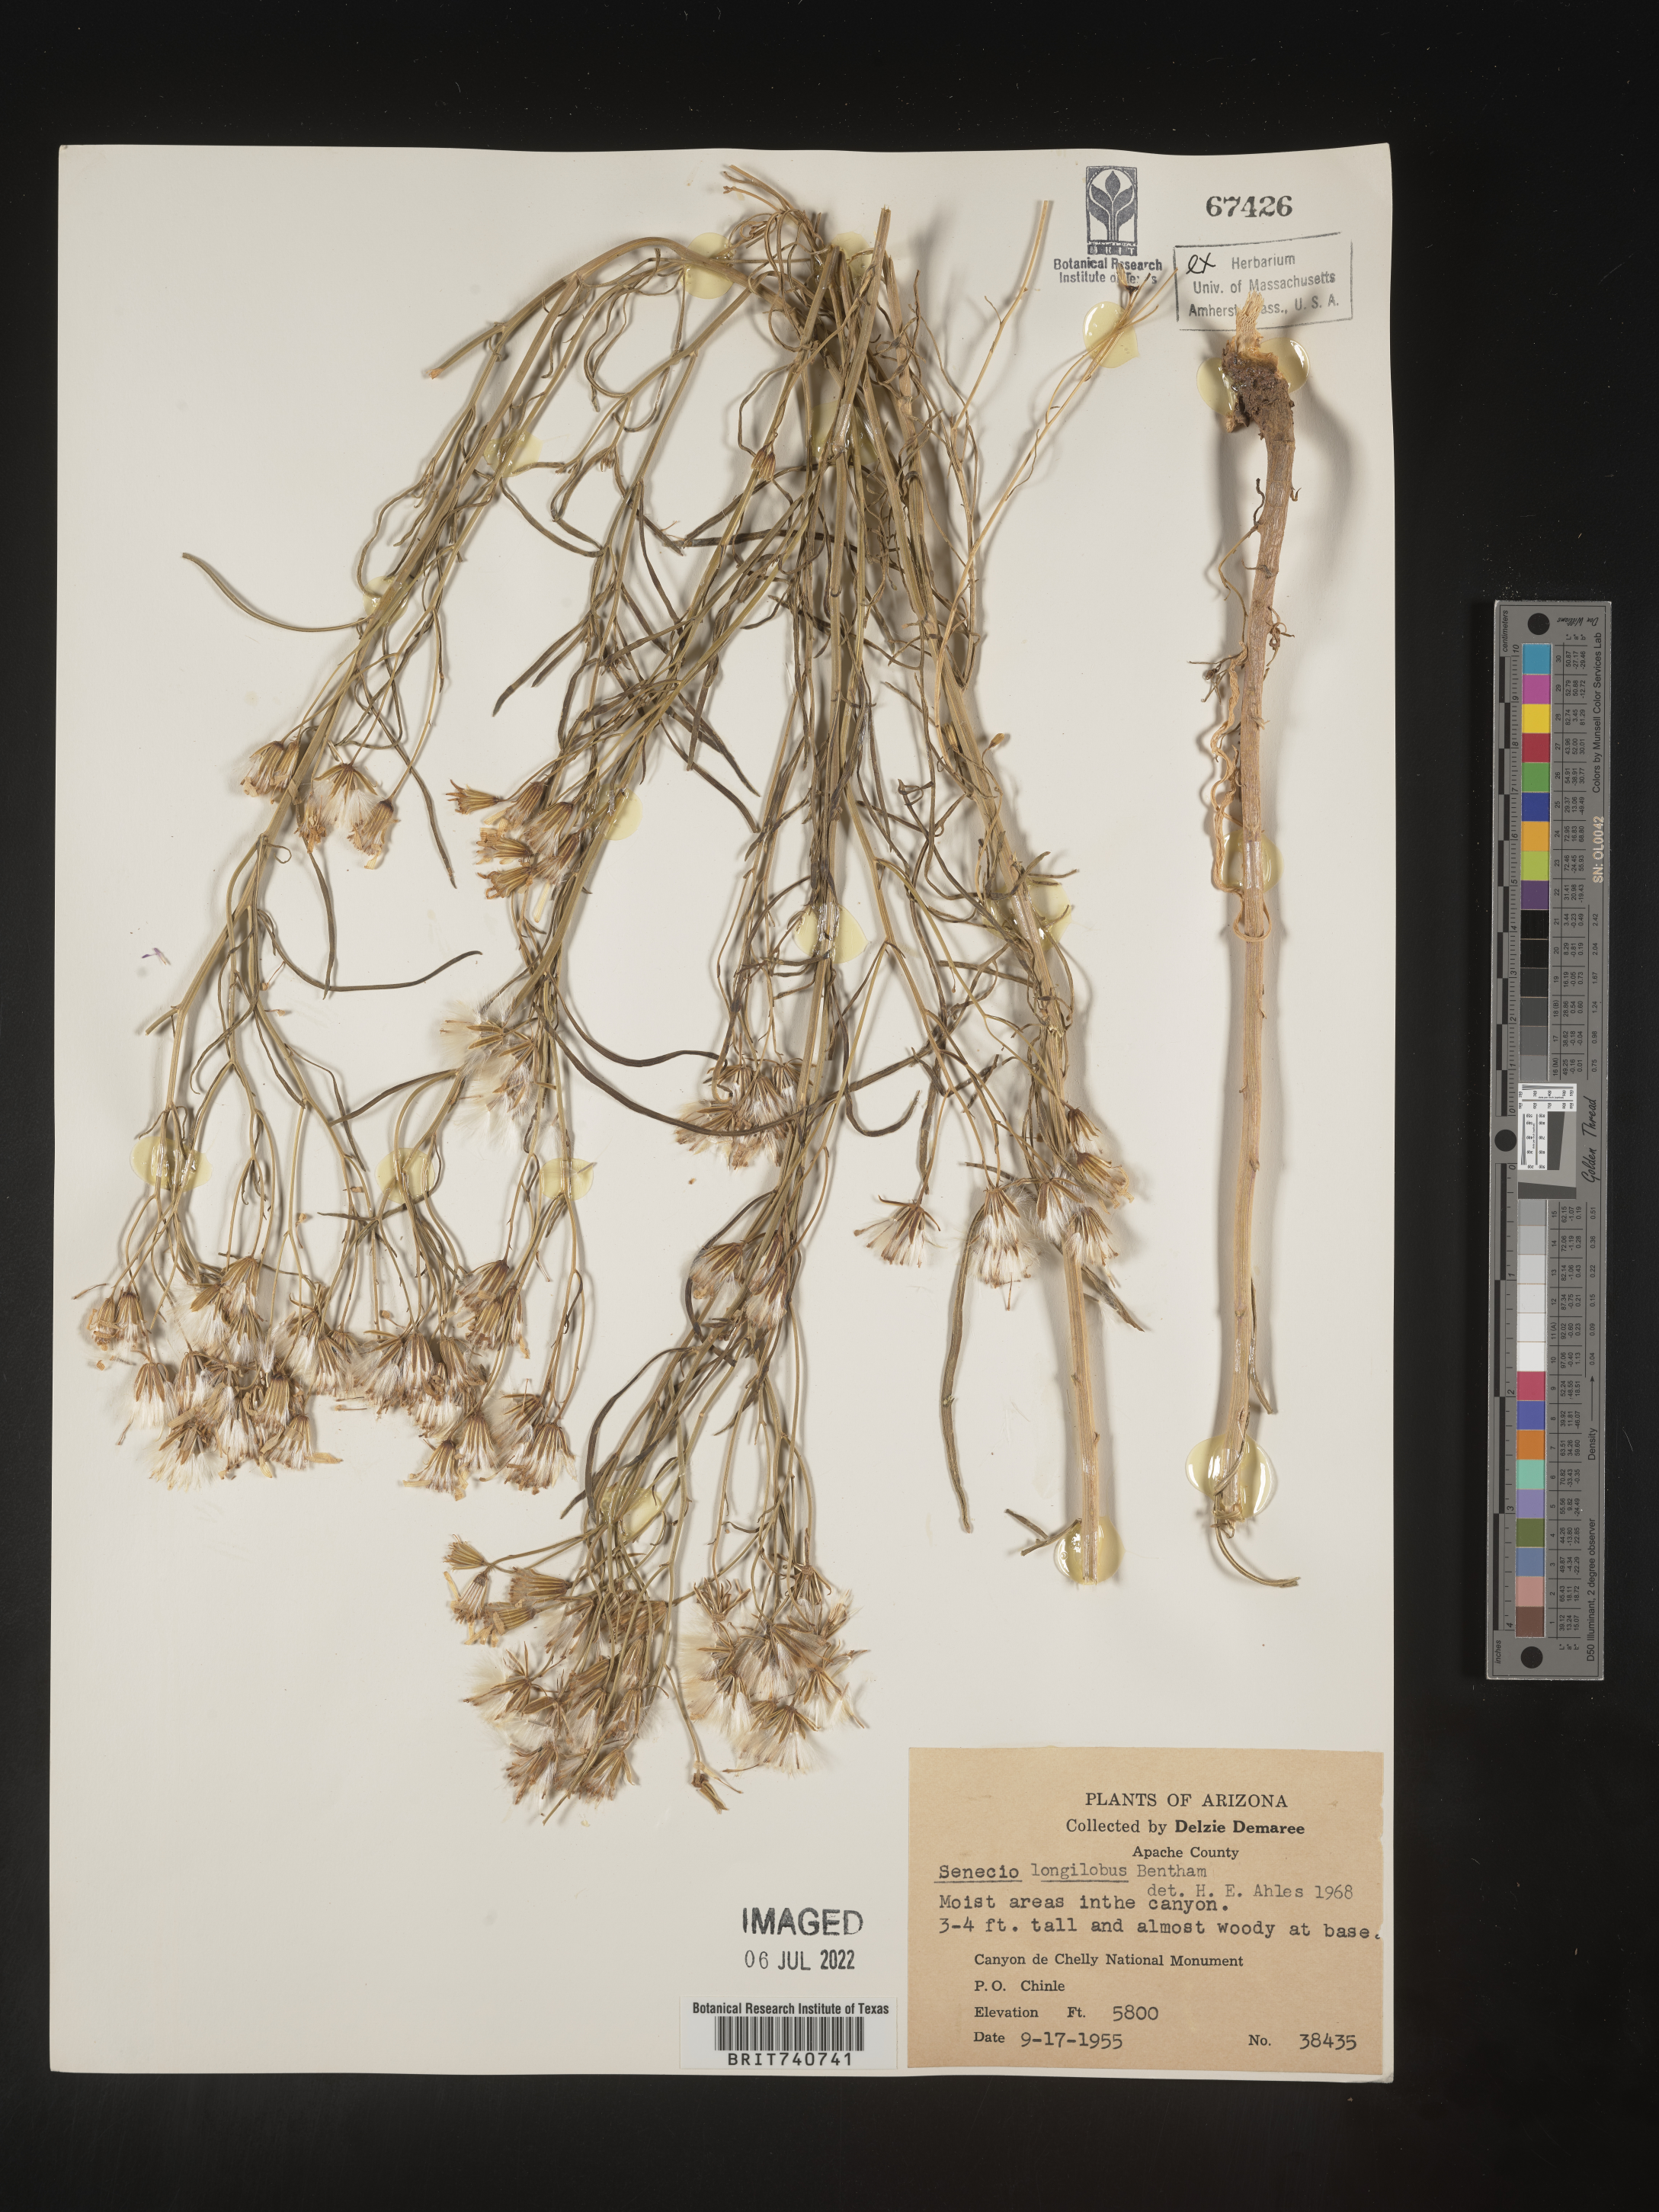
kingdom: Plantae
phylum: Tracheophyta
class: Magnoliopsida
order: Asterales
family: Asteraceae
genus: Senecio
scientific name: Senecio flaccidus
